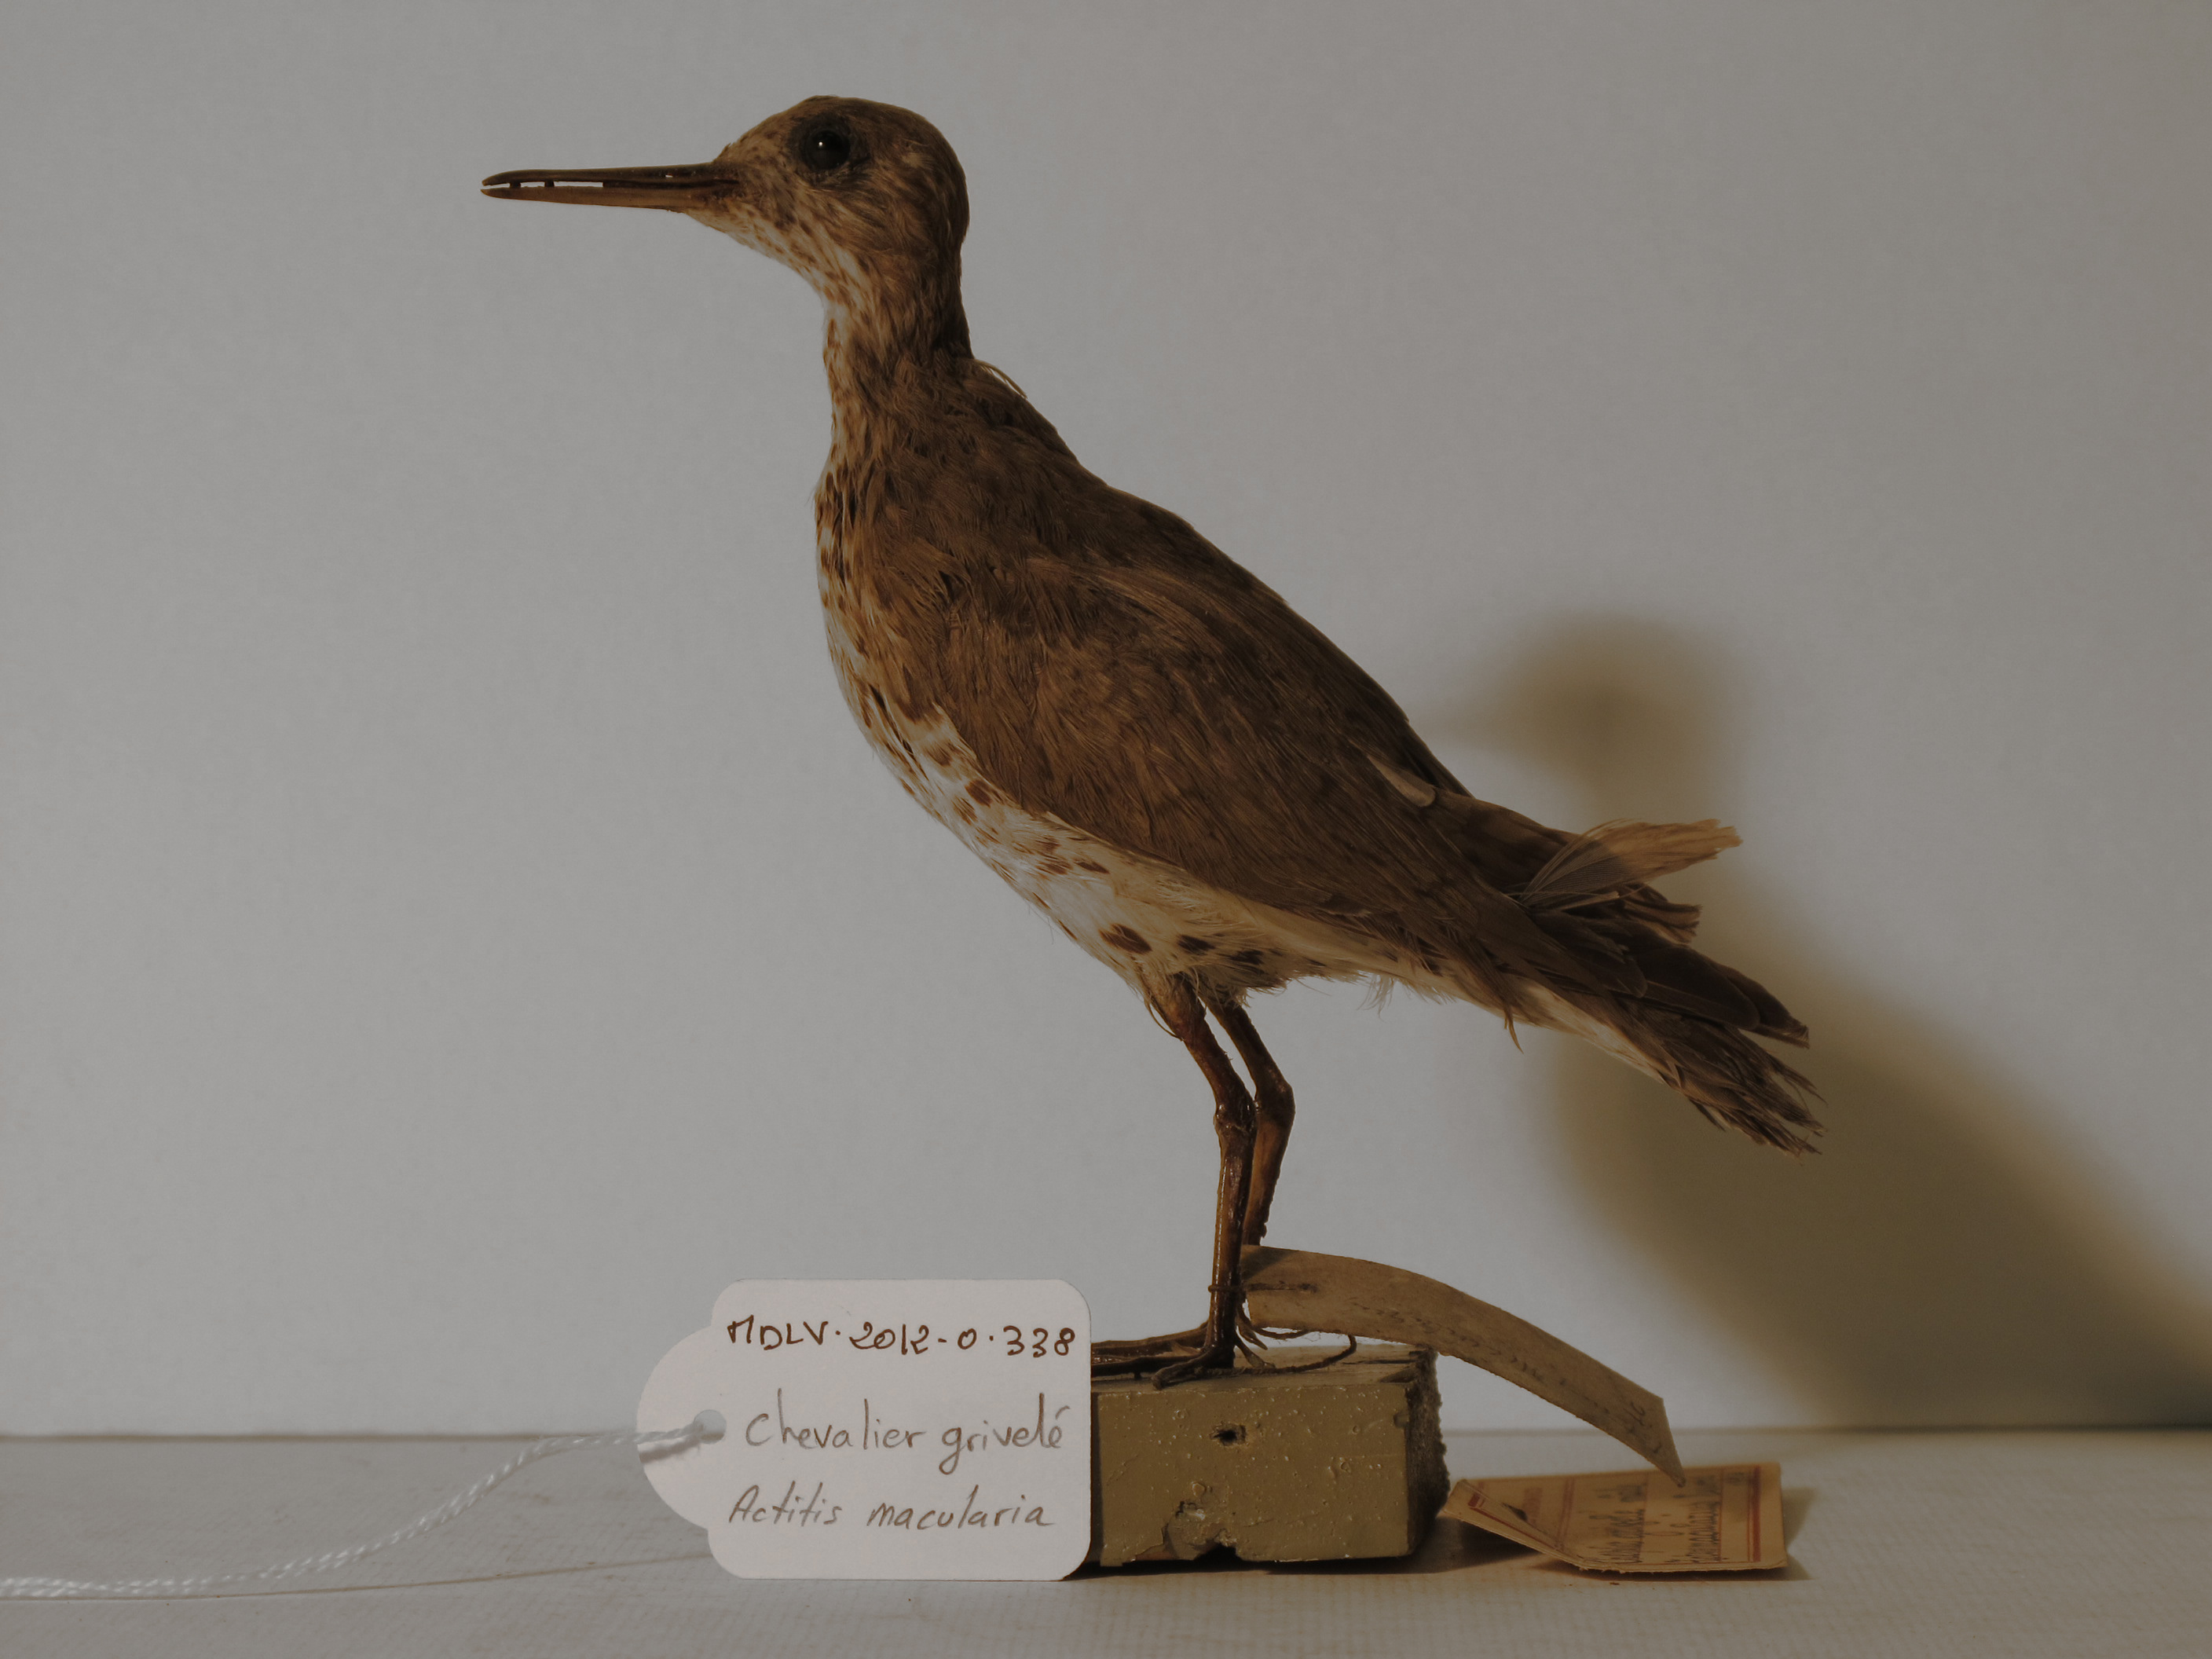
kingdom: Animalia
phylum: Chordata
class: Aves
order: Charadriiformes
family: Scolopacidae
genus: Actitis
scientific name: Actitis macularius
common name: Spotted Sandpiper
